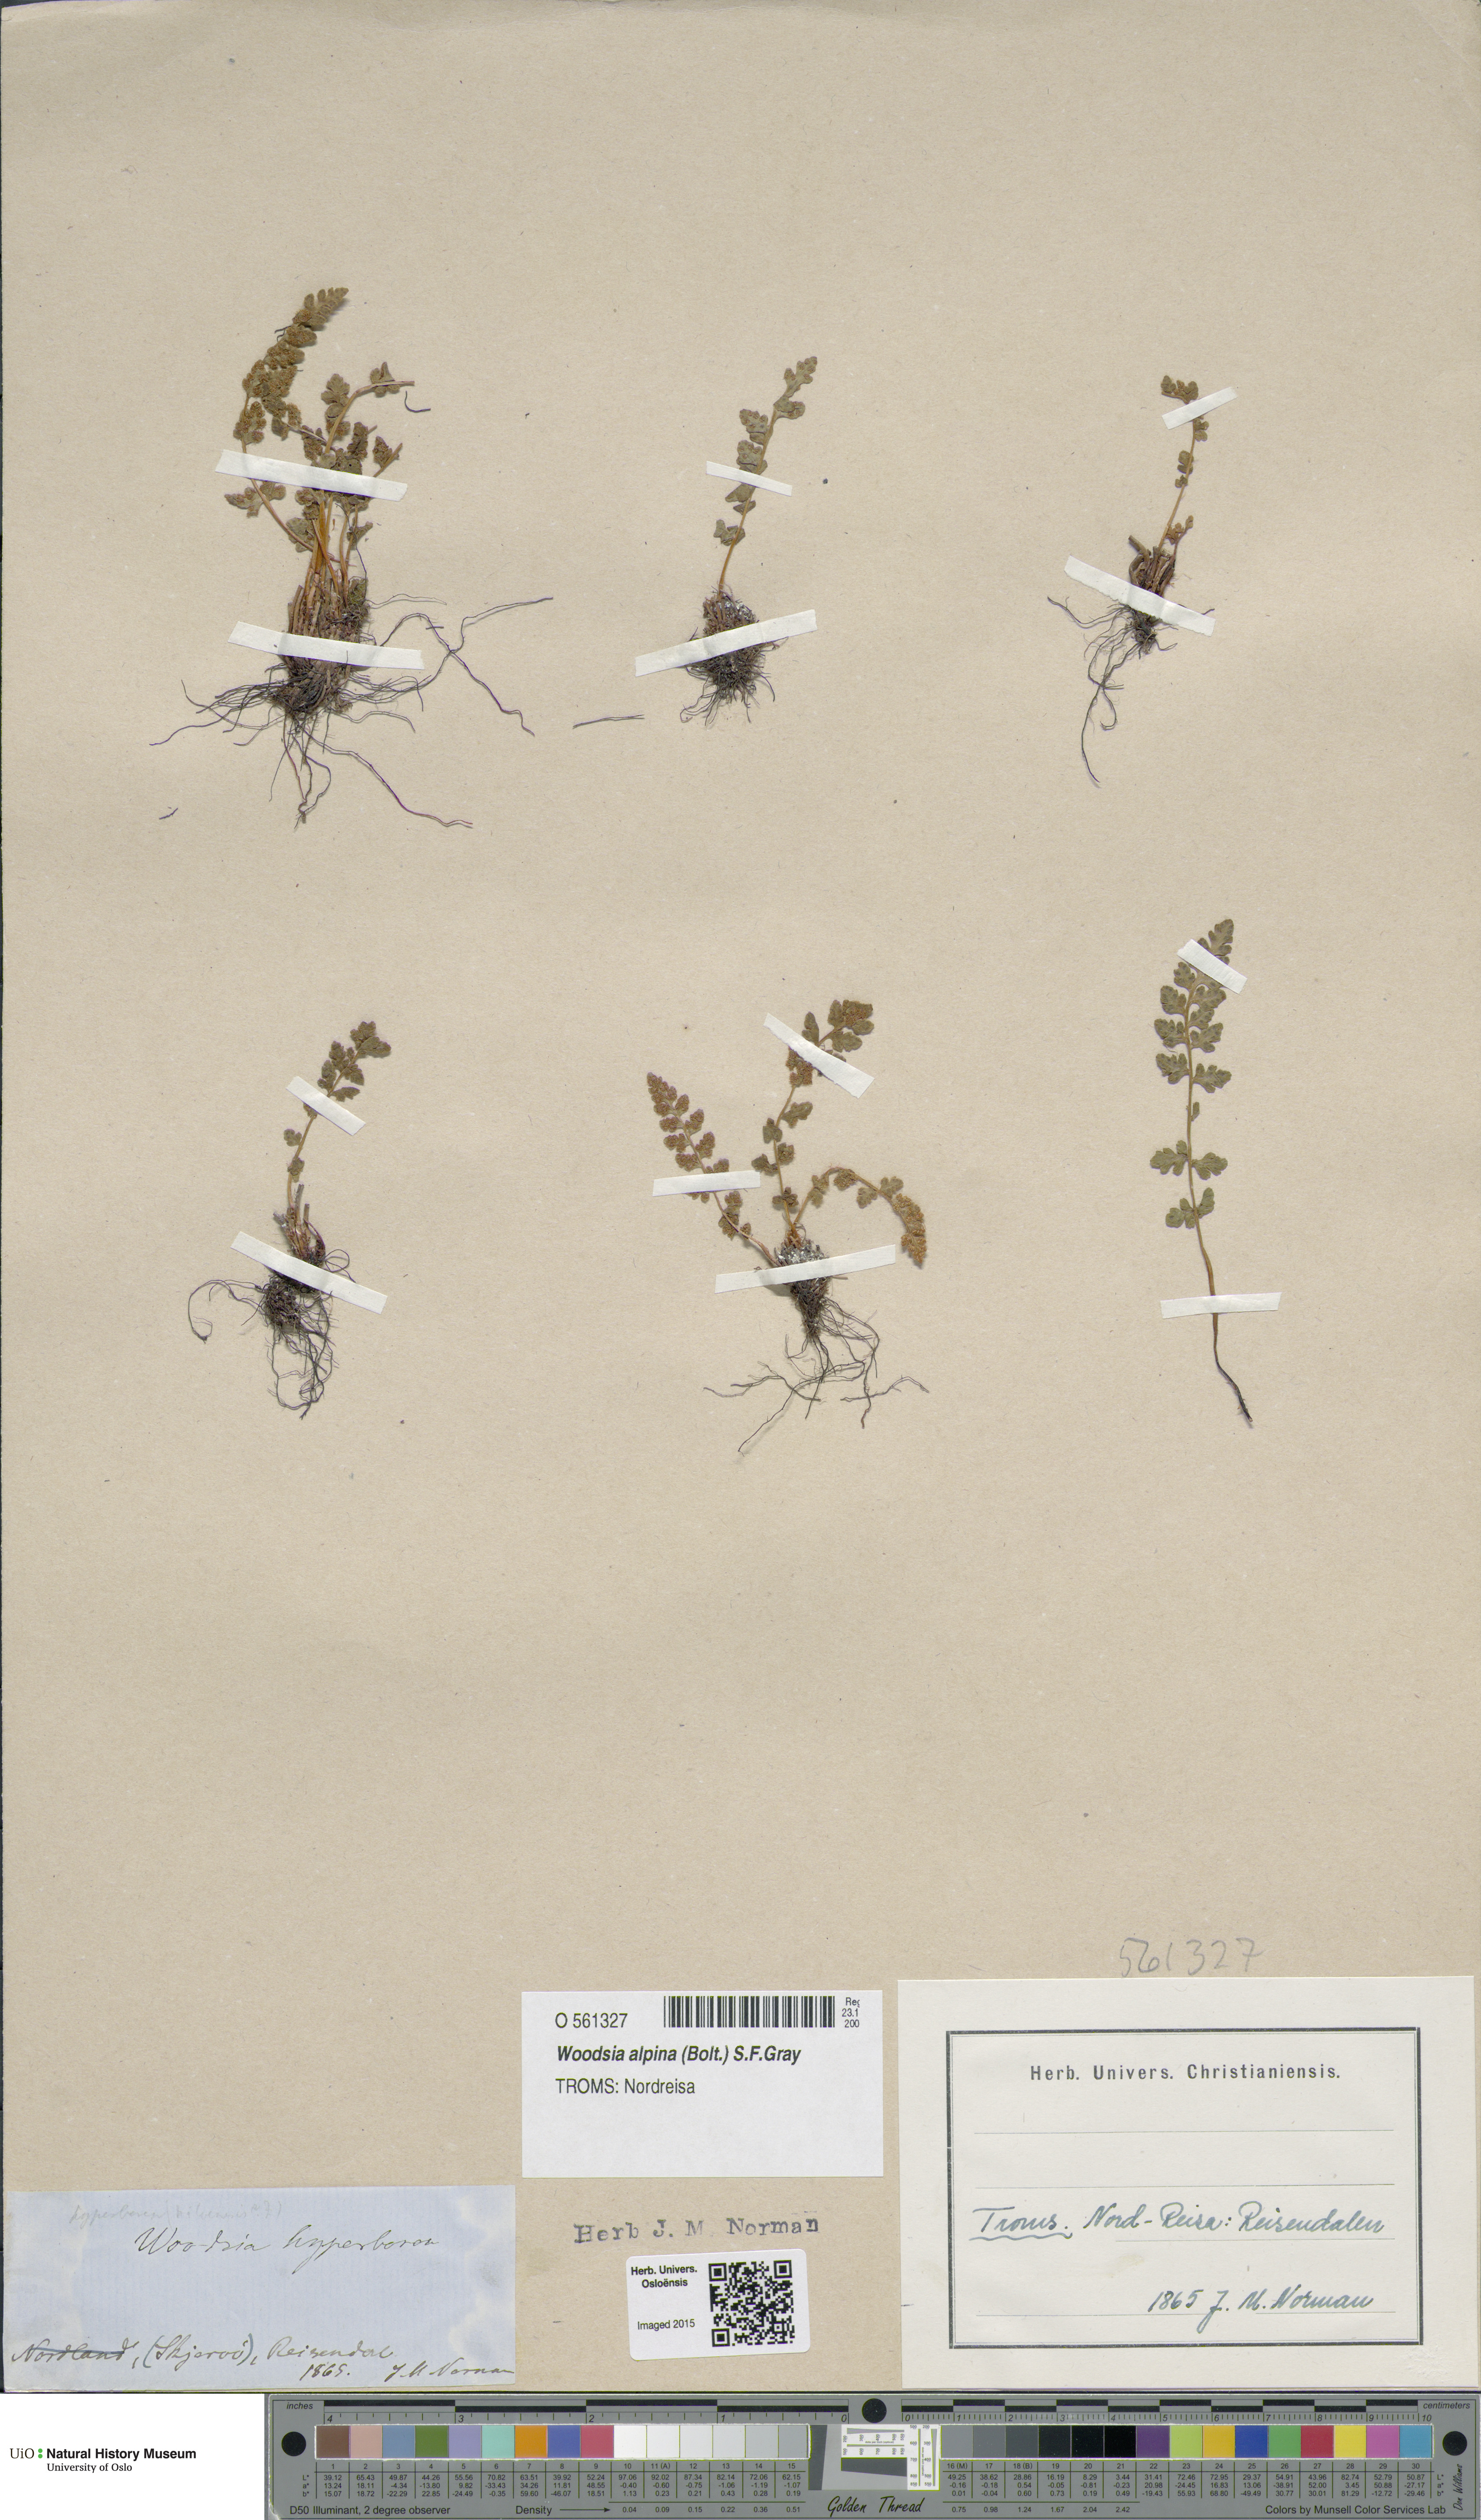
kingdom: Plantae
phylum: Tracheophyta
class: Polypodiopsida
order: Polypodiales
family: Woodsiaceae
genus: Woodsia
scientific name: Woodsia alpina
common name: Alpine woodsia
